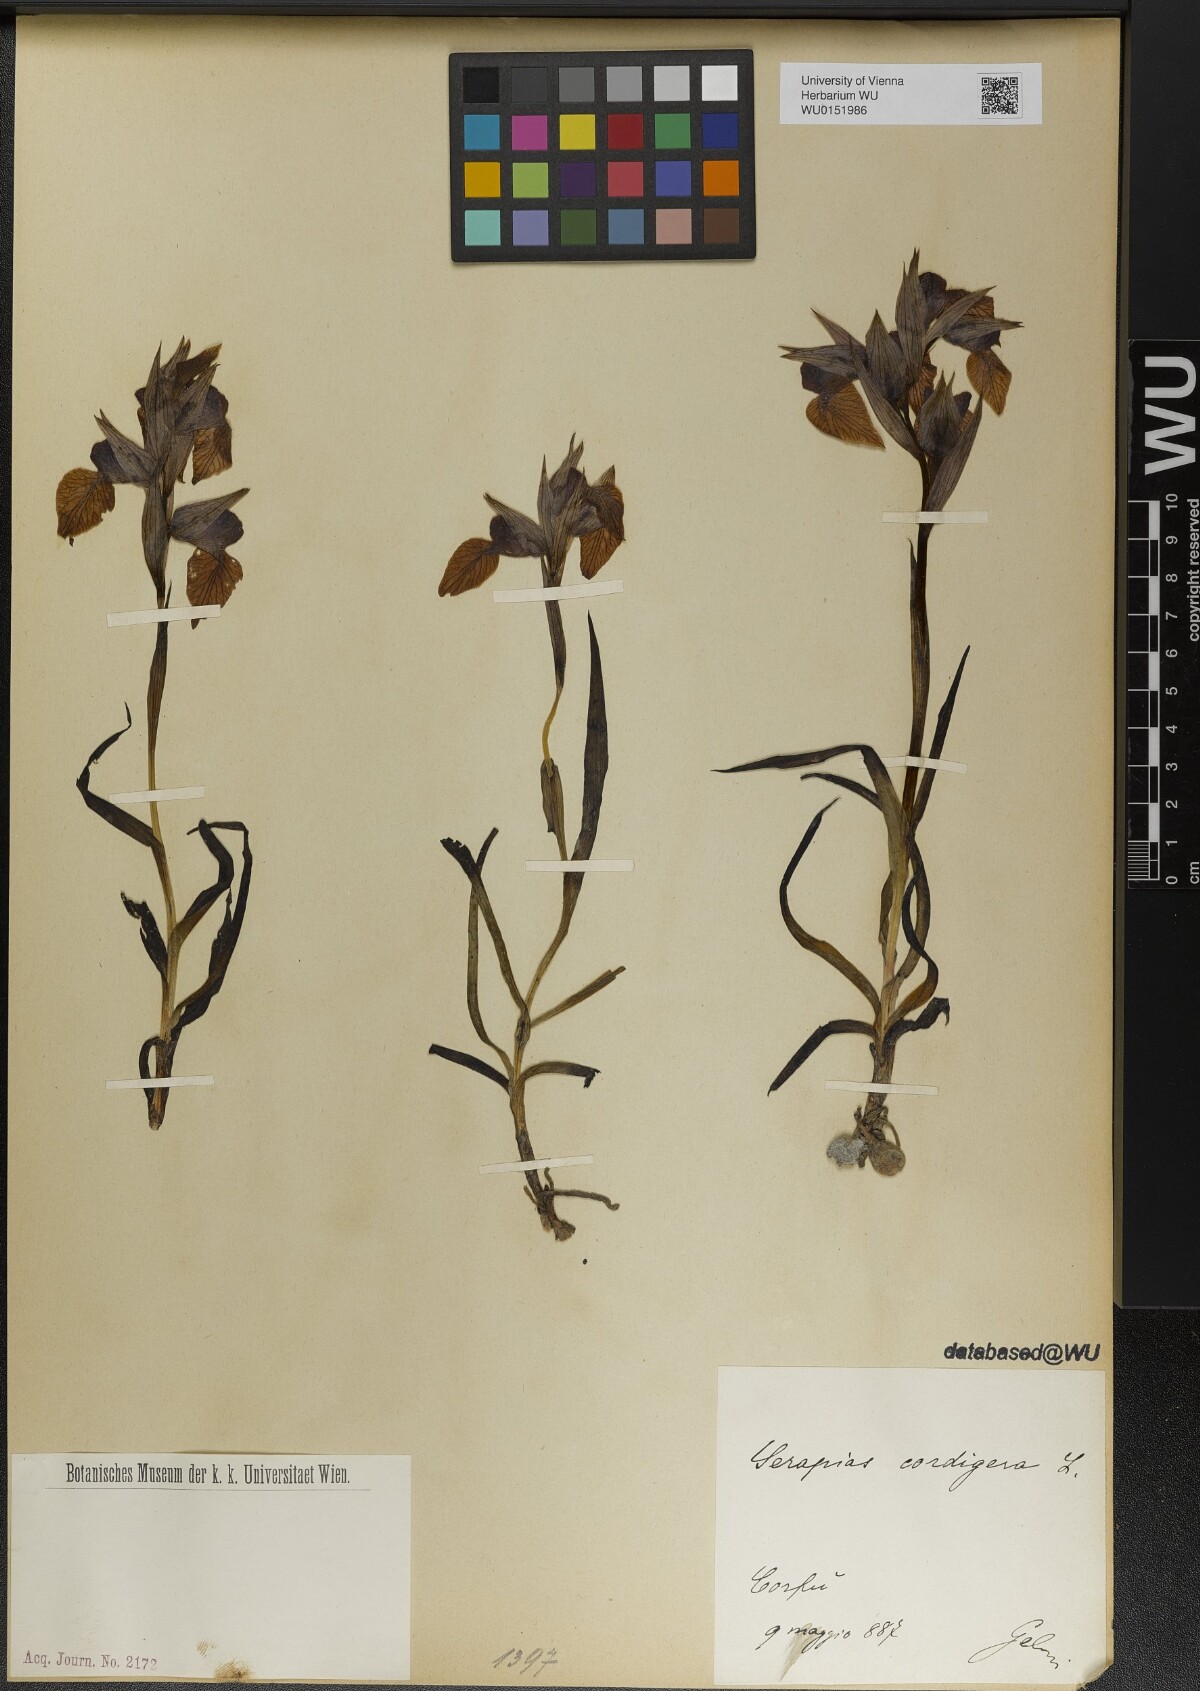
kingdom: Plantae
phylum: Tracheophyta
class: Liliopsida
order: Asparagales
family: Orchidaceae
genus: Serapias
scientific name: Serapias cordigera
